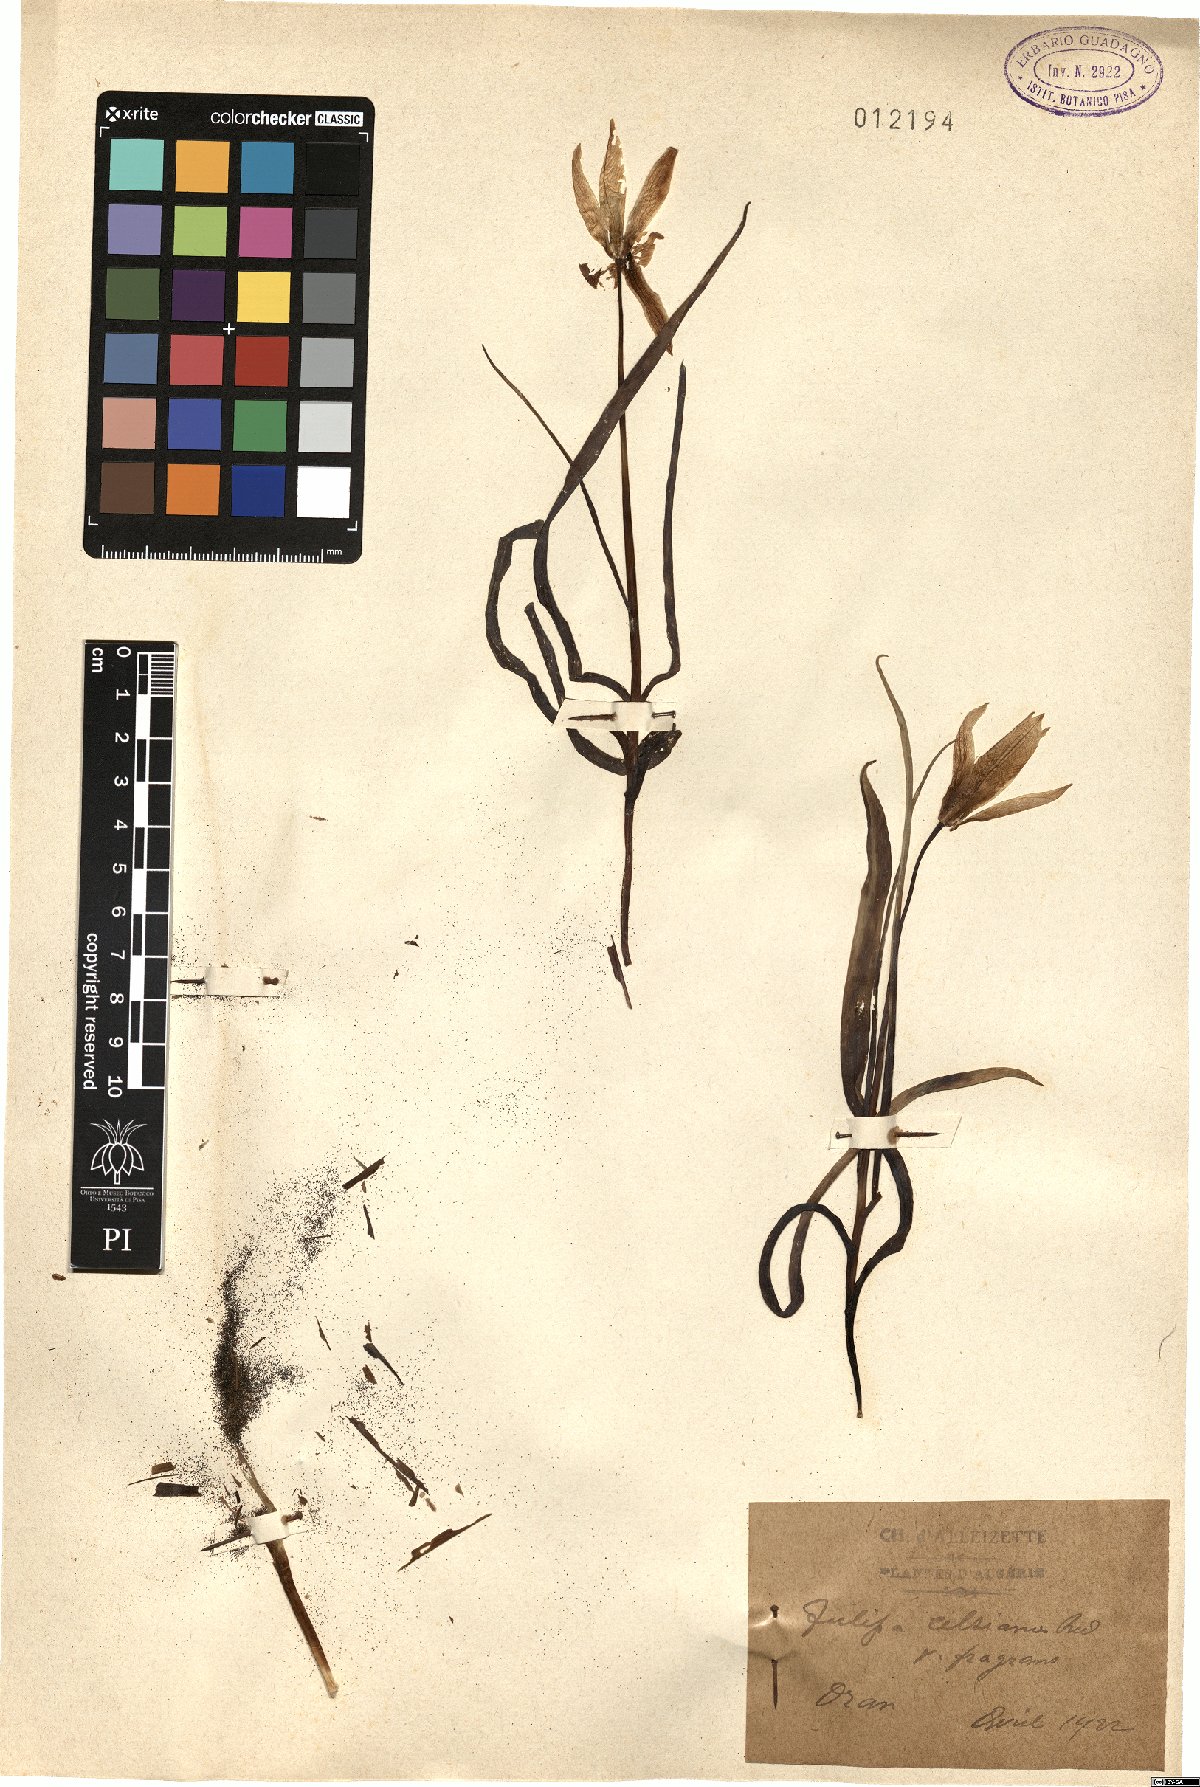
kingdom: Plantae
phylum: Tracheophyta
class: Liliopsida
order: Liliales
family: Liliaceae
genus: Tulipa
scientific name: Tulipa sylvestris
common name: Wild tulip
